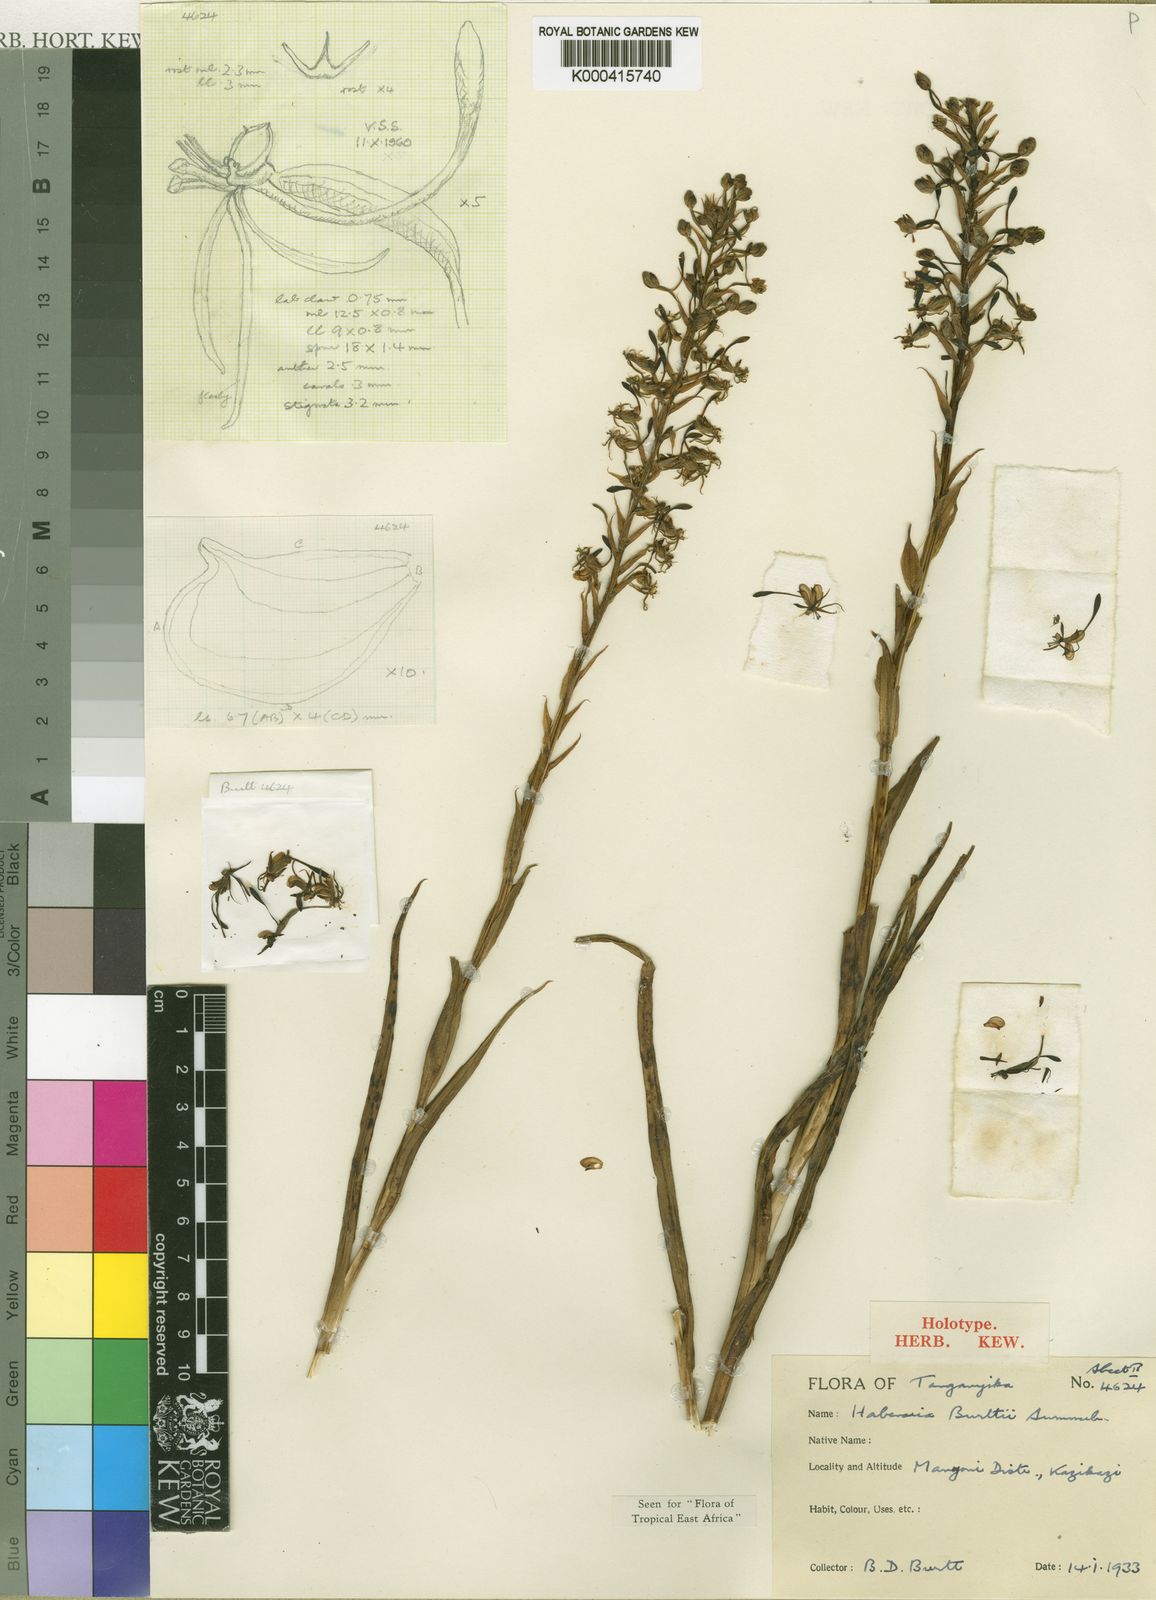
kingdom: Plantae
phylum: Tracheophyta
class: Liliopsida
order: Asparagales
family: Orchidaceae
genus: Habenaria
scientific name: Habenaria burttii
